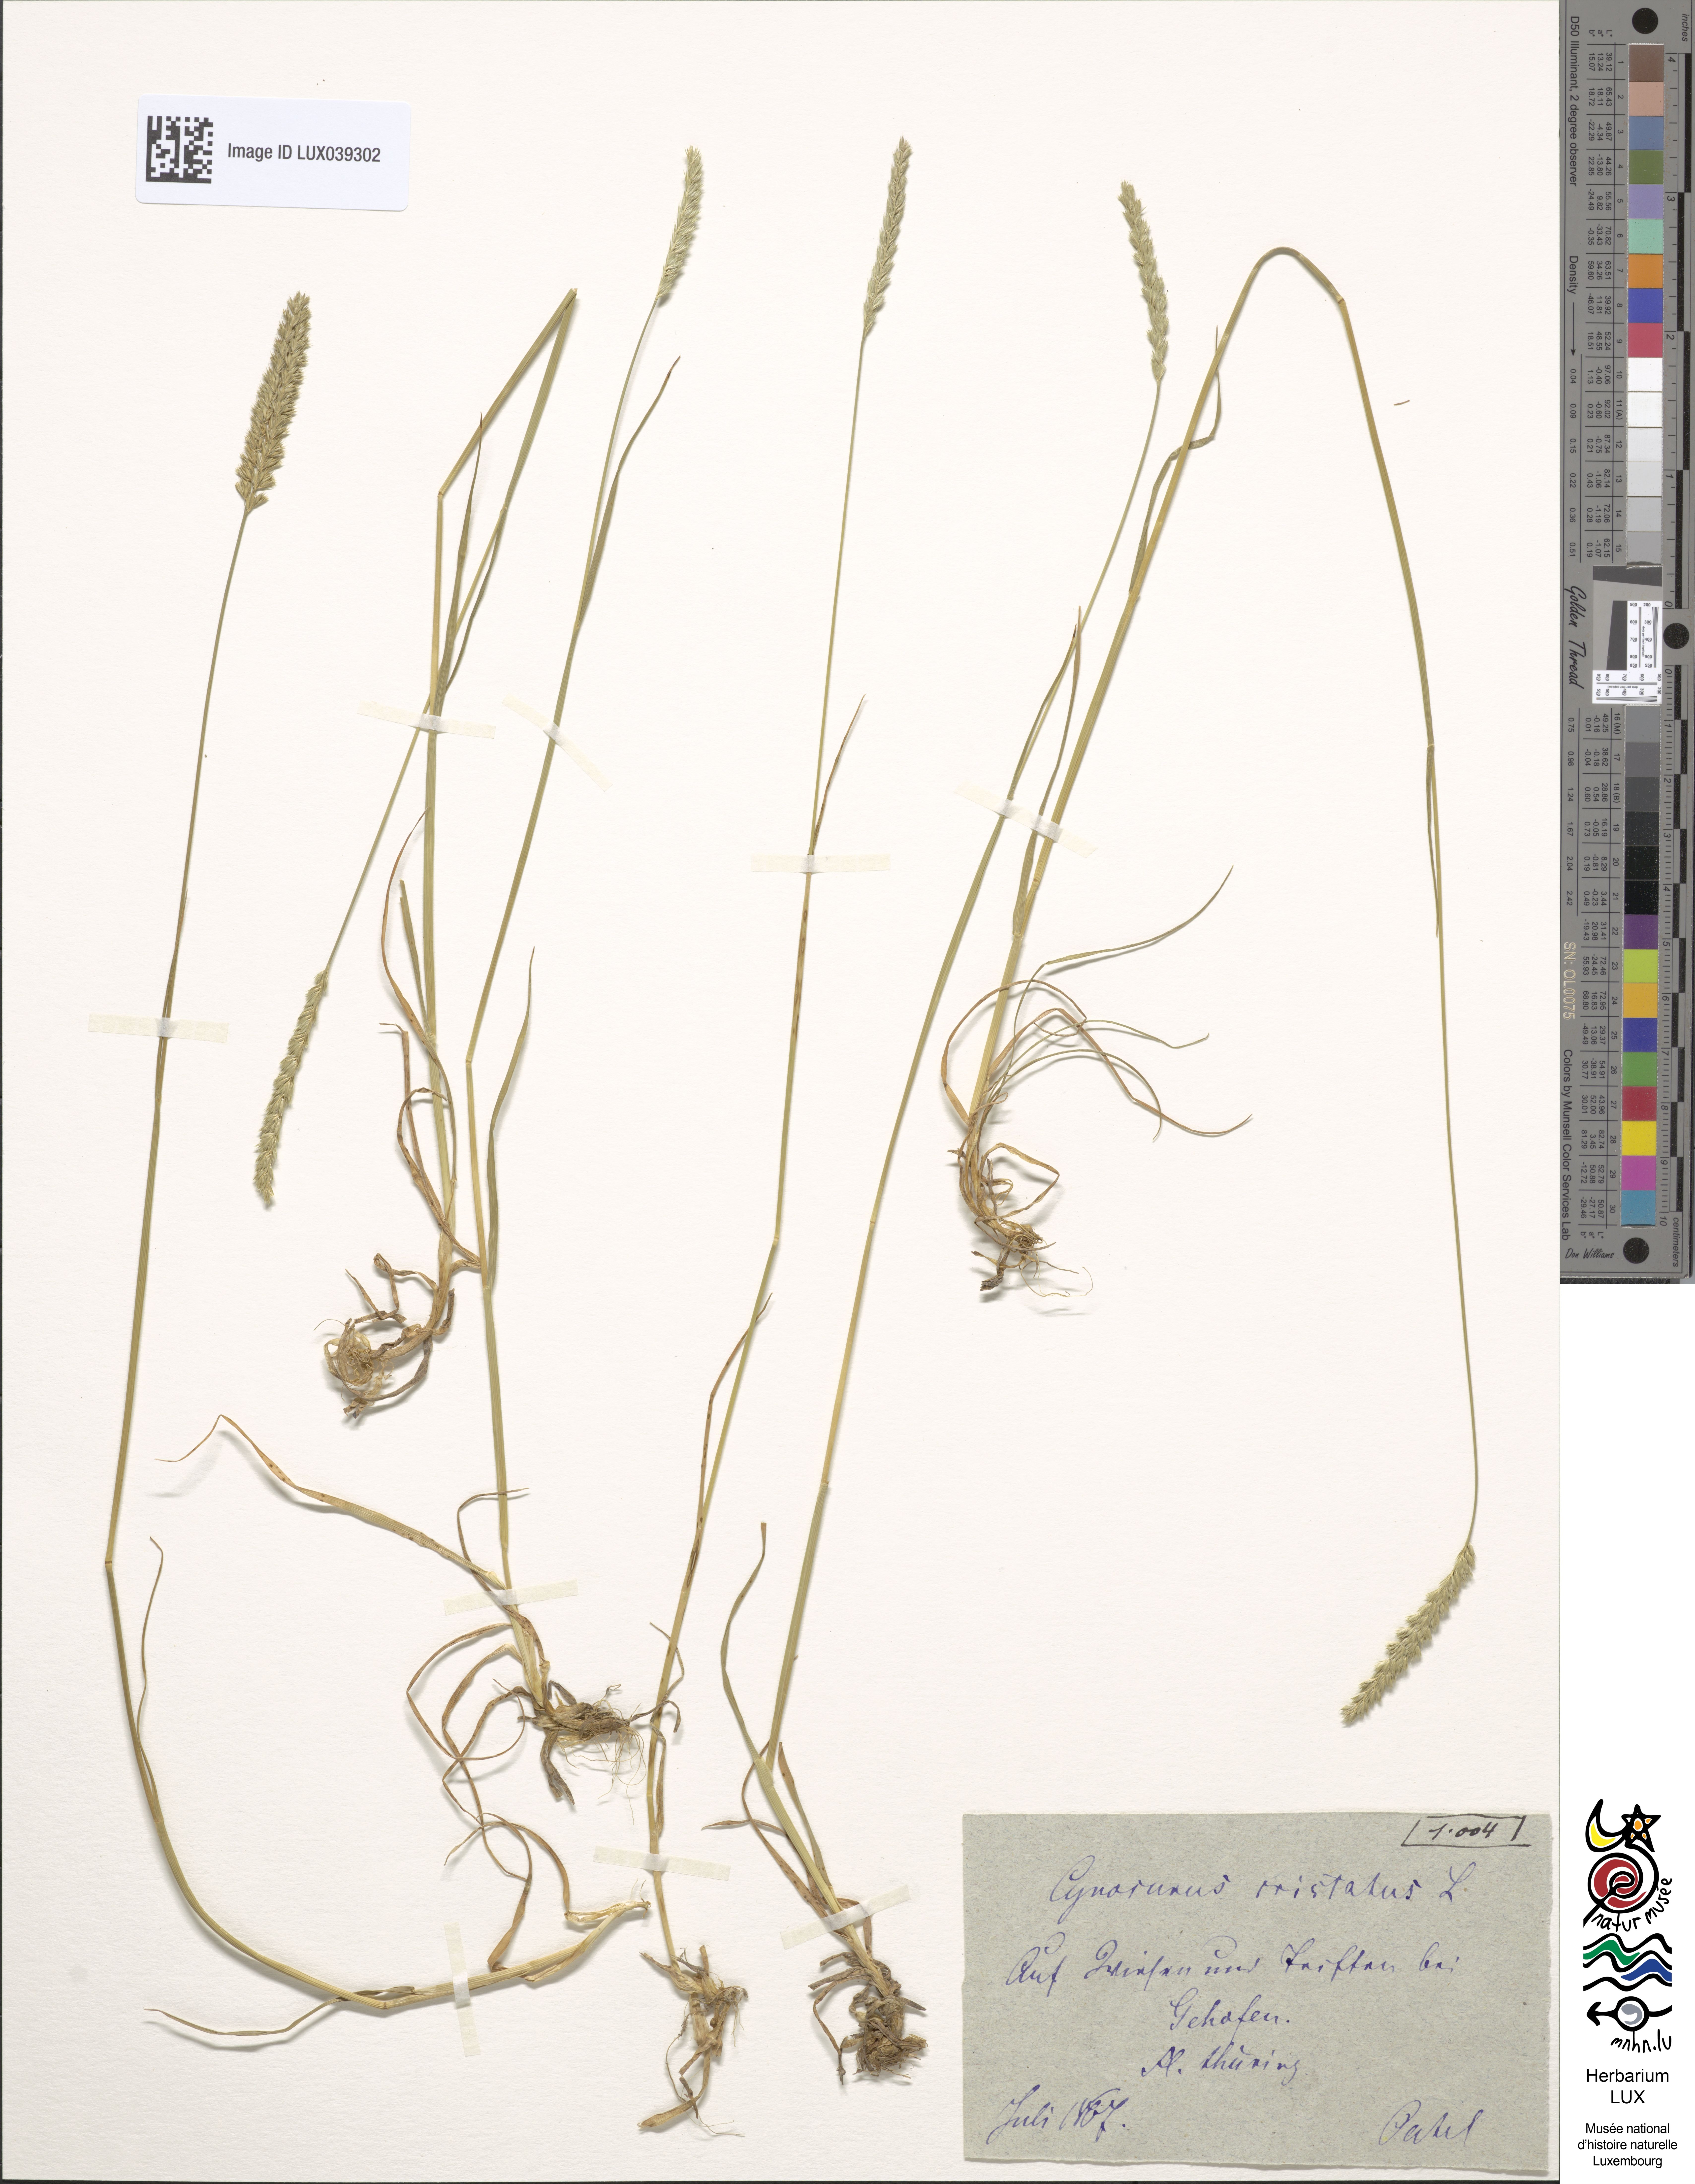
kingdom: Plantae
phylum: Tracheophyta
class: Liliopsida
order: Poales
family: Poaceae
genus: Cynosurus
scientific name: Cynosurus cristatus
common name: Crested dog's-tail
